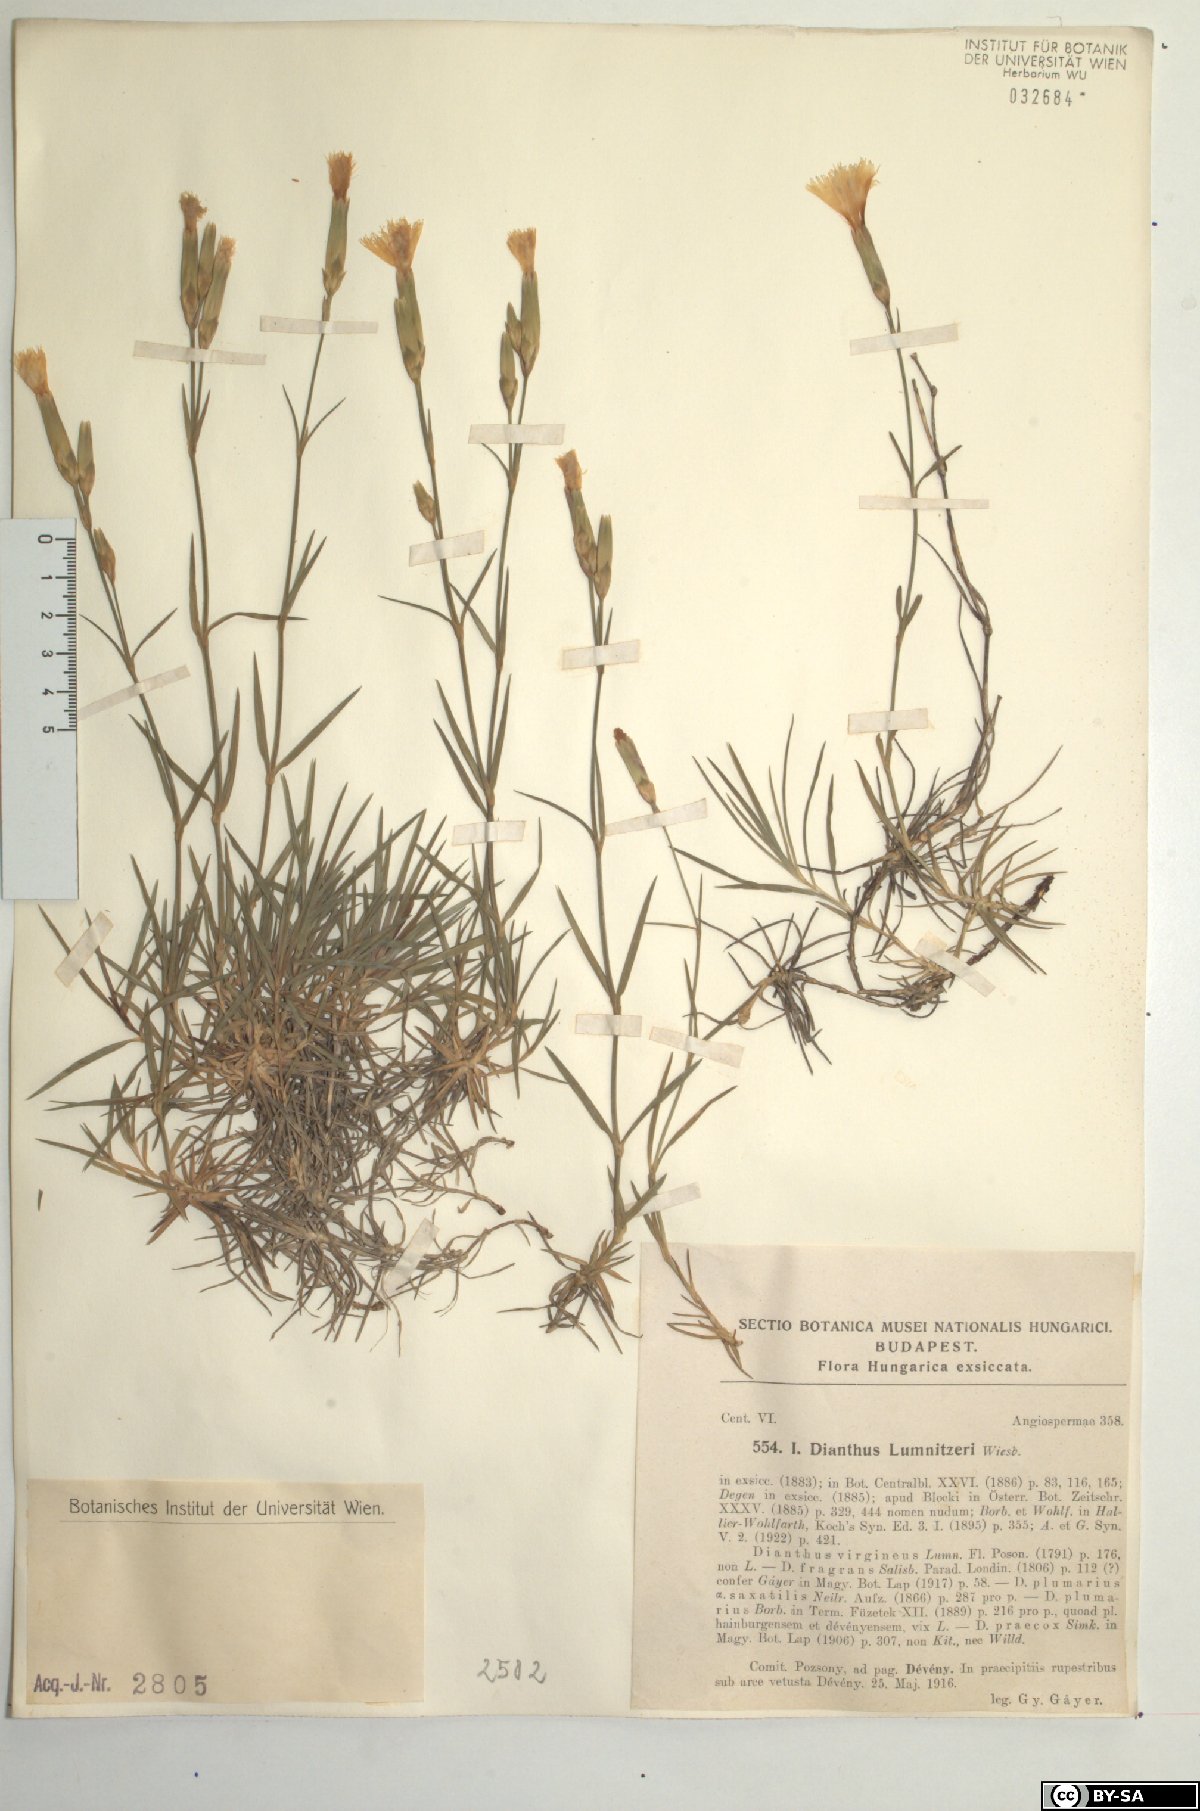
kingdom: Plantae
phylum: Tracheophyta
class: Magnoliopsida
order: Caryophyllales
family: Caryophyllaceae
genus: Dianthus
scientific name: Dianthus praecox
